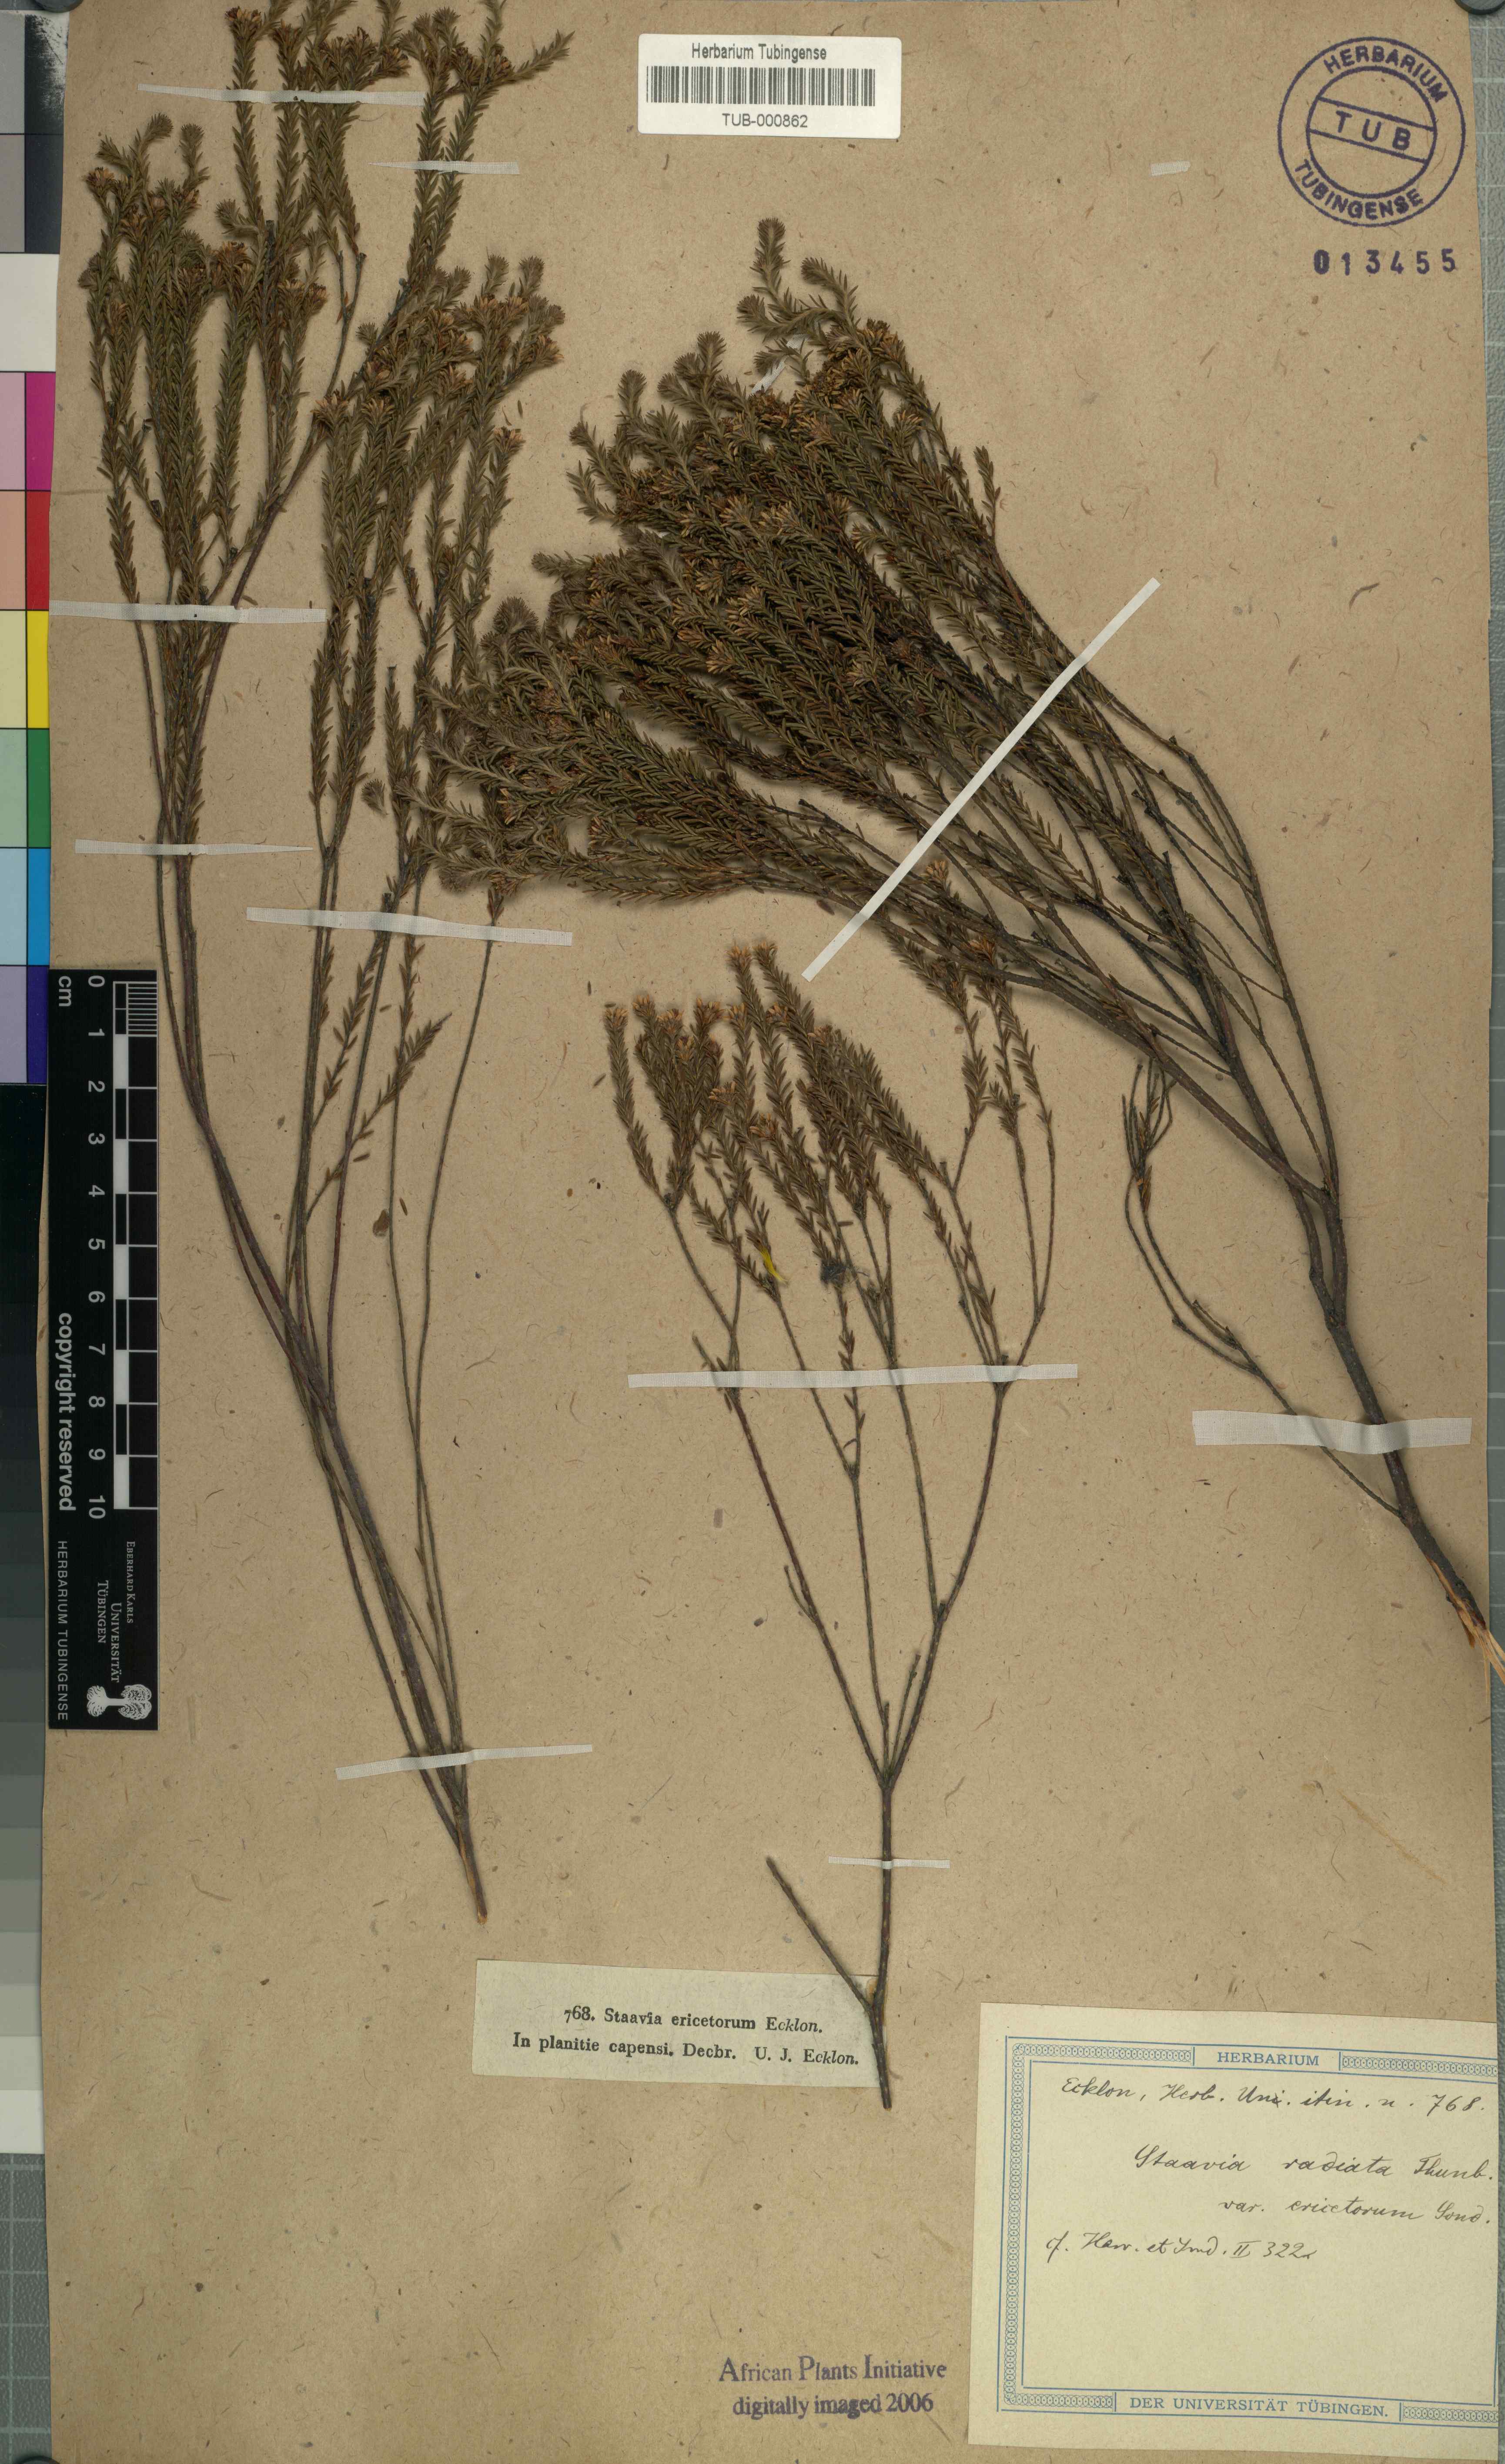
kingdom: Plantae
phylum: Tracheophyta
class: Magnoliopsida
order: Bruniales
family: Bruniaceae
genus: Staavia
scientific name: Staavia radiata
